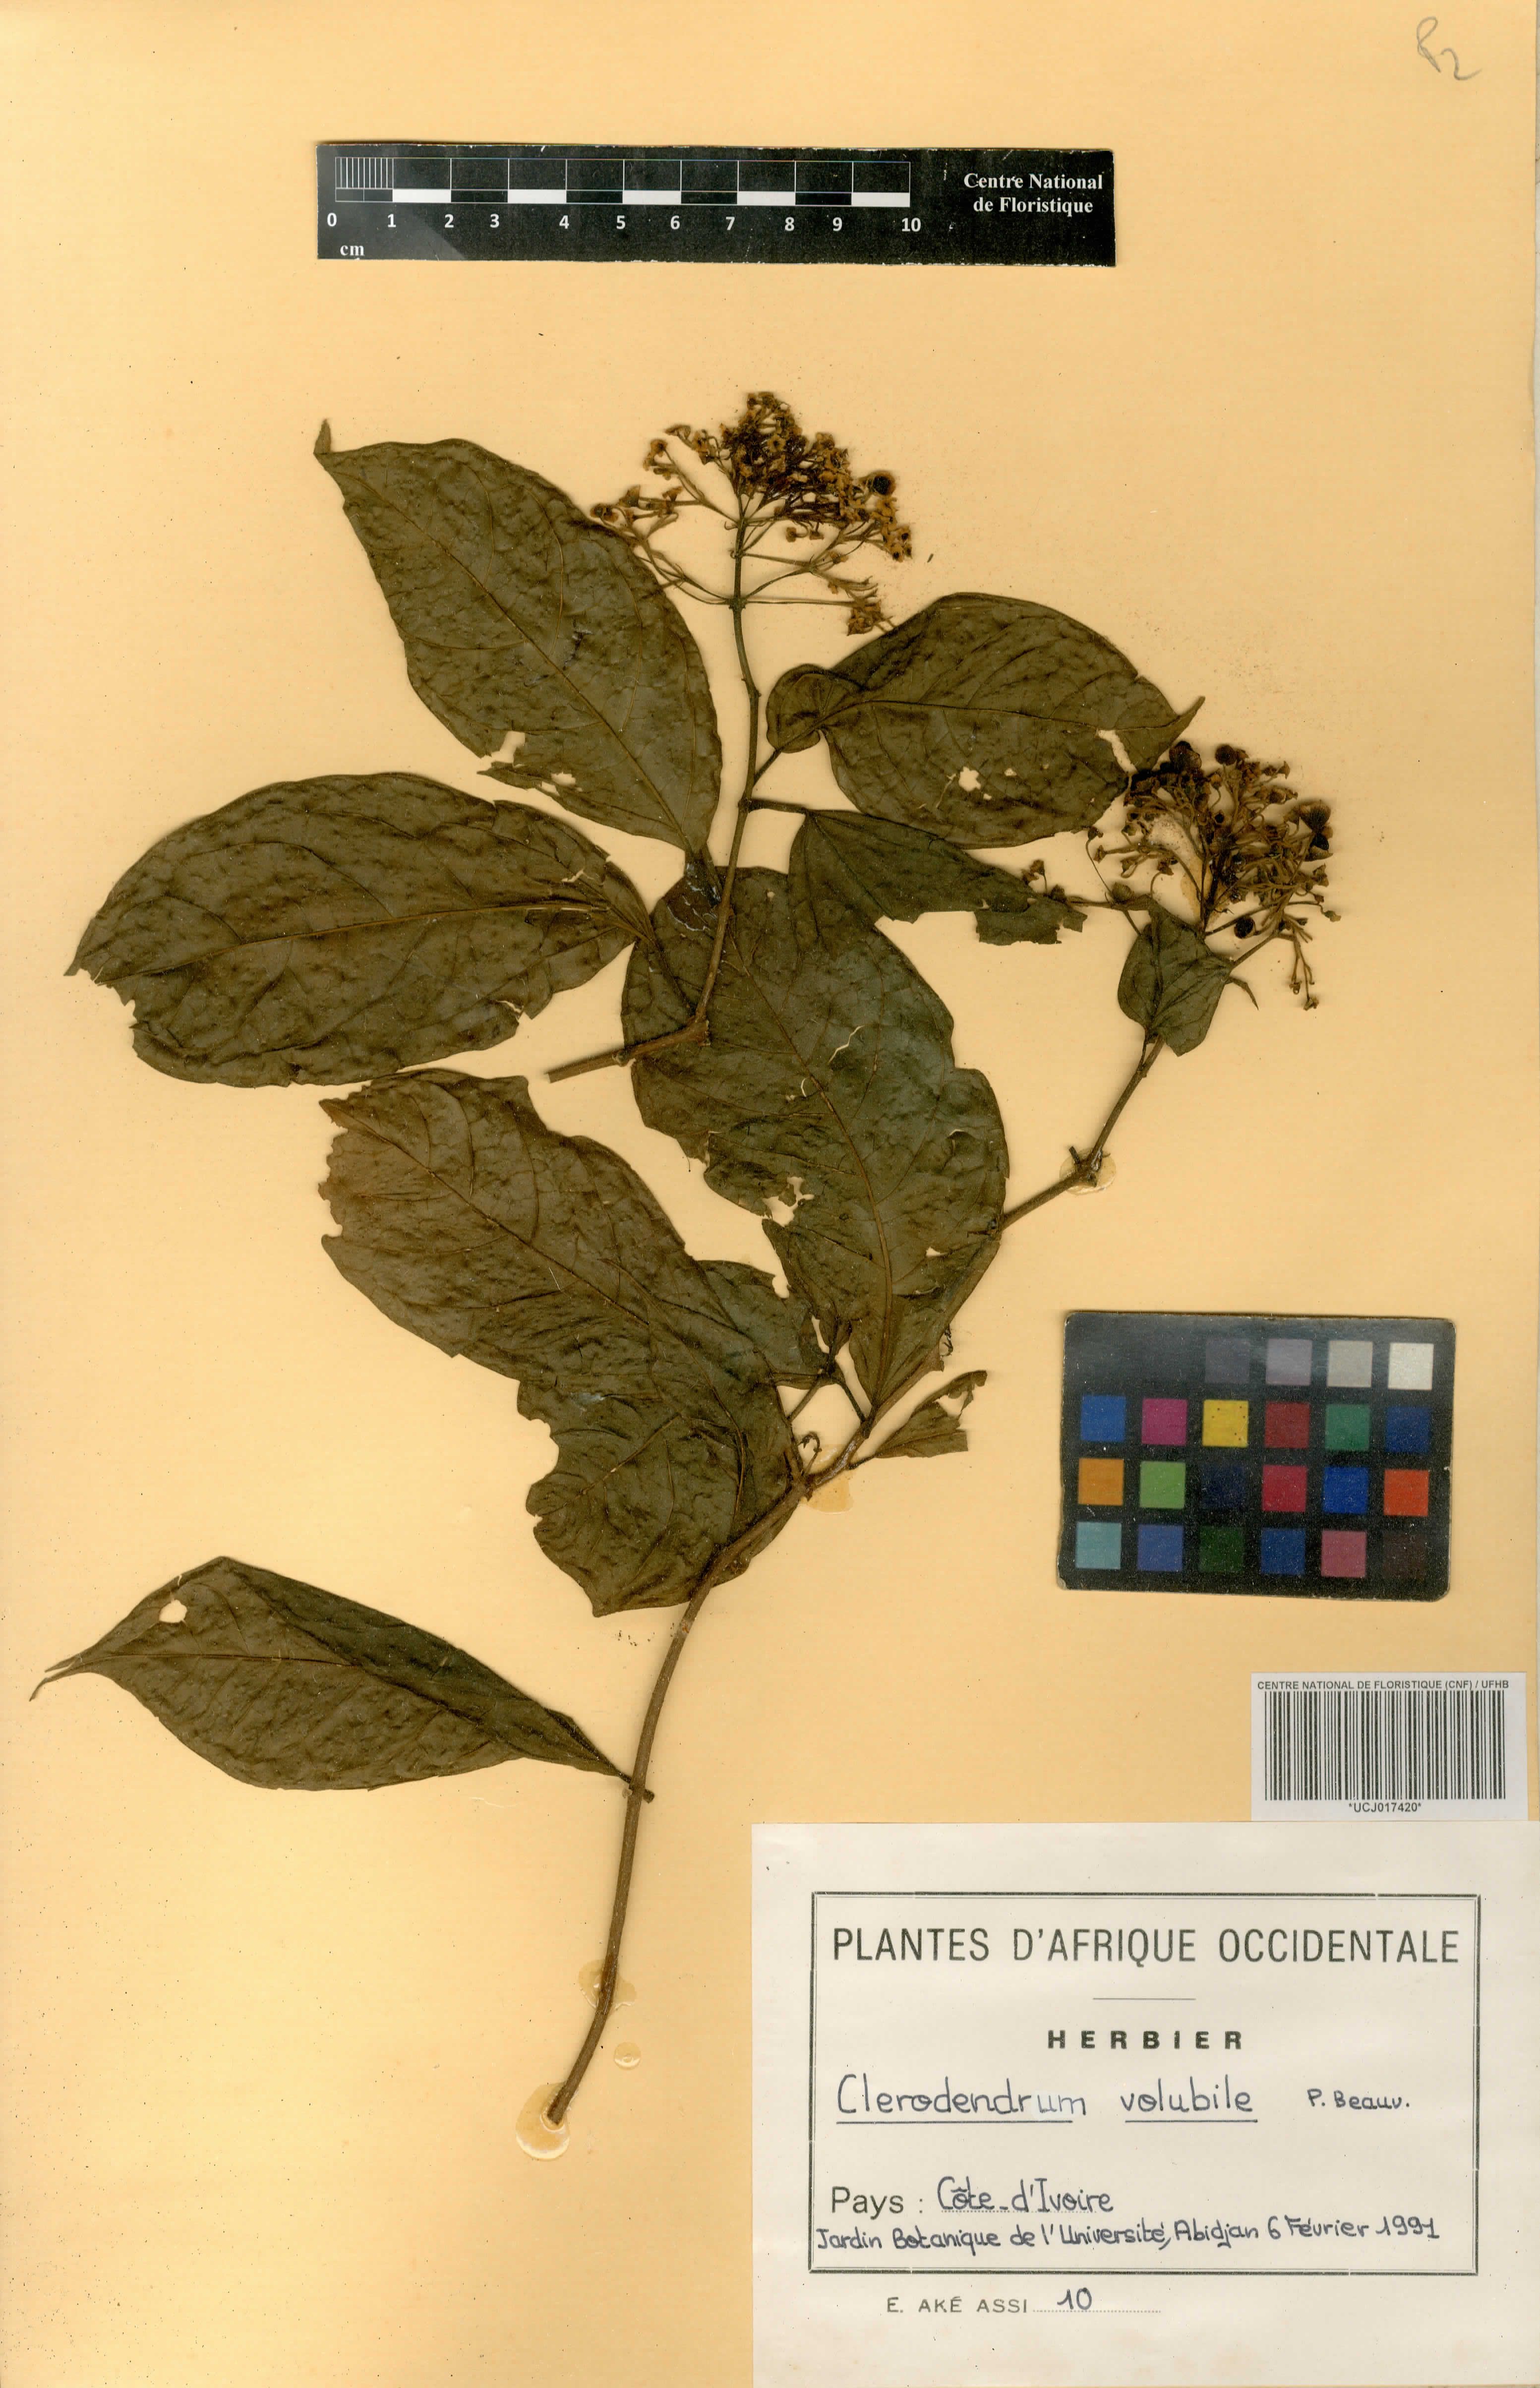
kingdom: Plantae
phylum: Tracheophyta
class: Magnoliopsida
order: Lamiales
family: Lamiaceae
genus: Clerodendrum
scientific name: Clerodendrum volubile
